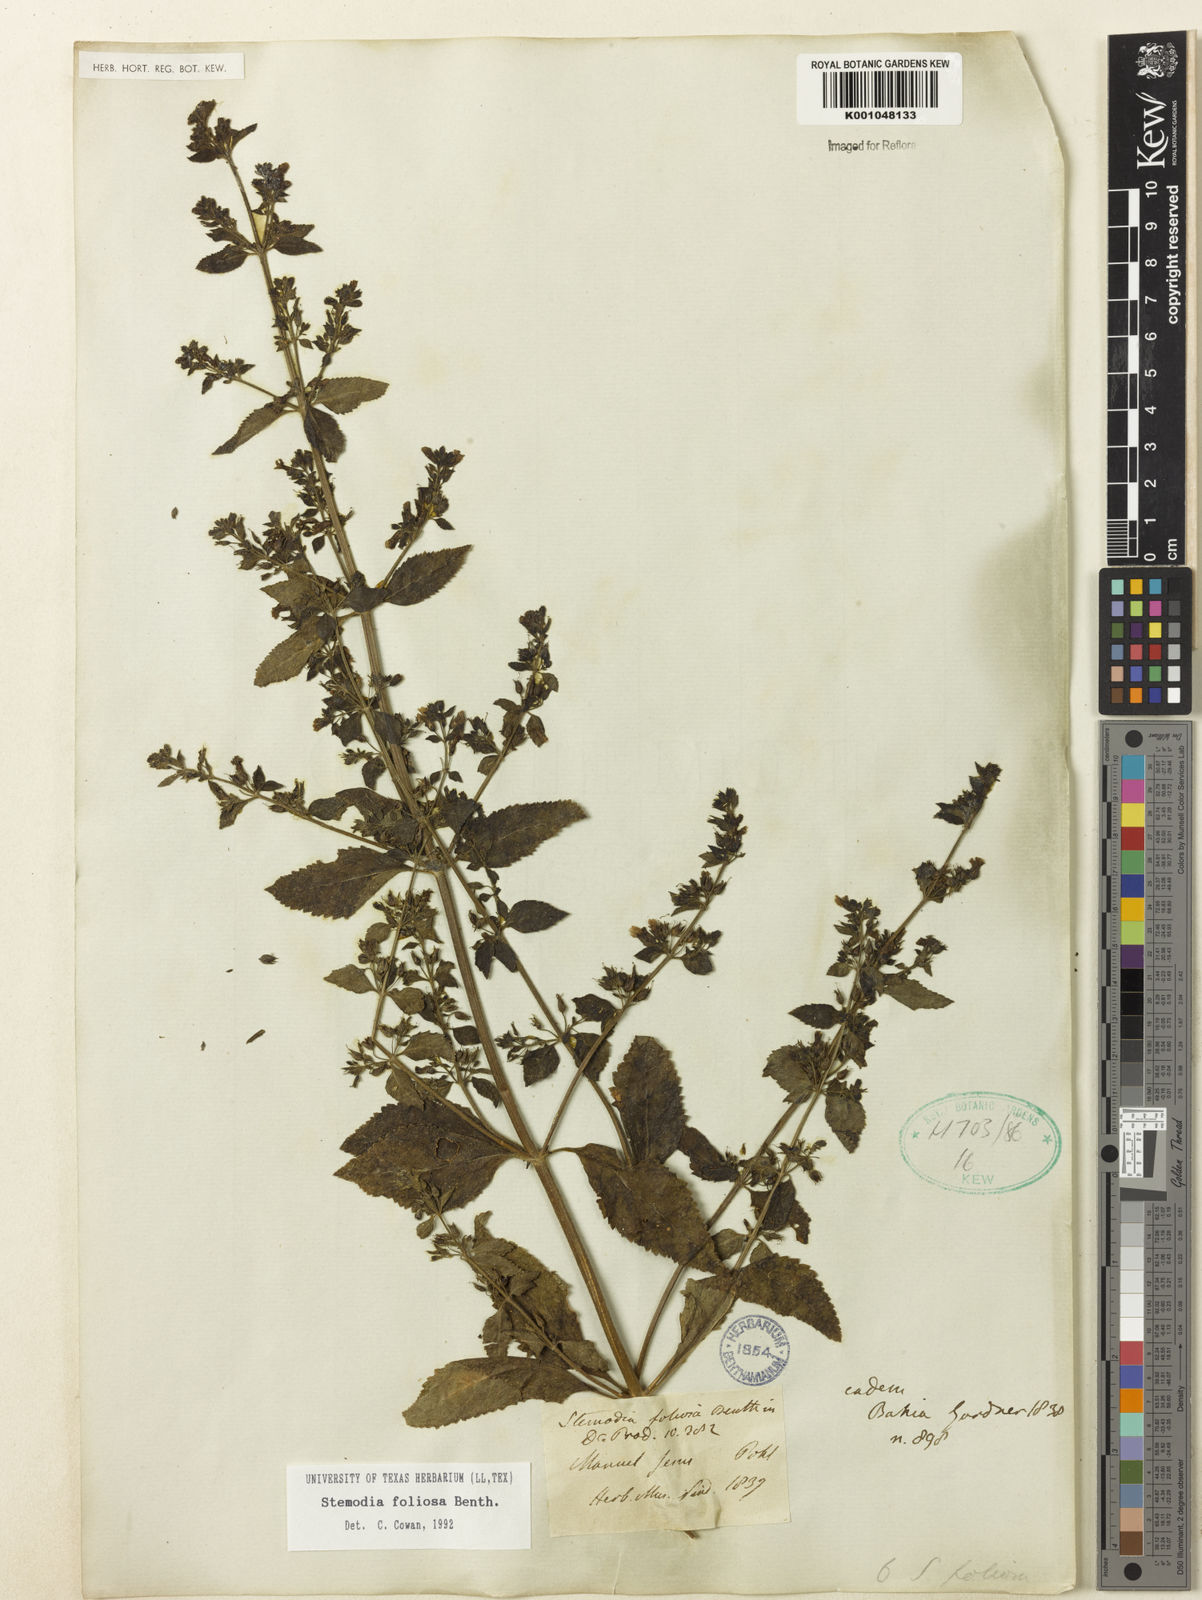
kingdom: Plantae
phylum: Tracheophyta
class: Magnoliopsida
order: Lamiales
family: Plantaginaceae
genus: Stemodia
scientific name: Stemodia foliosa
